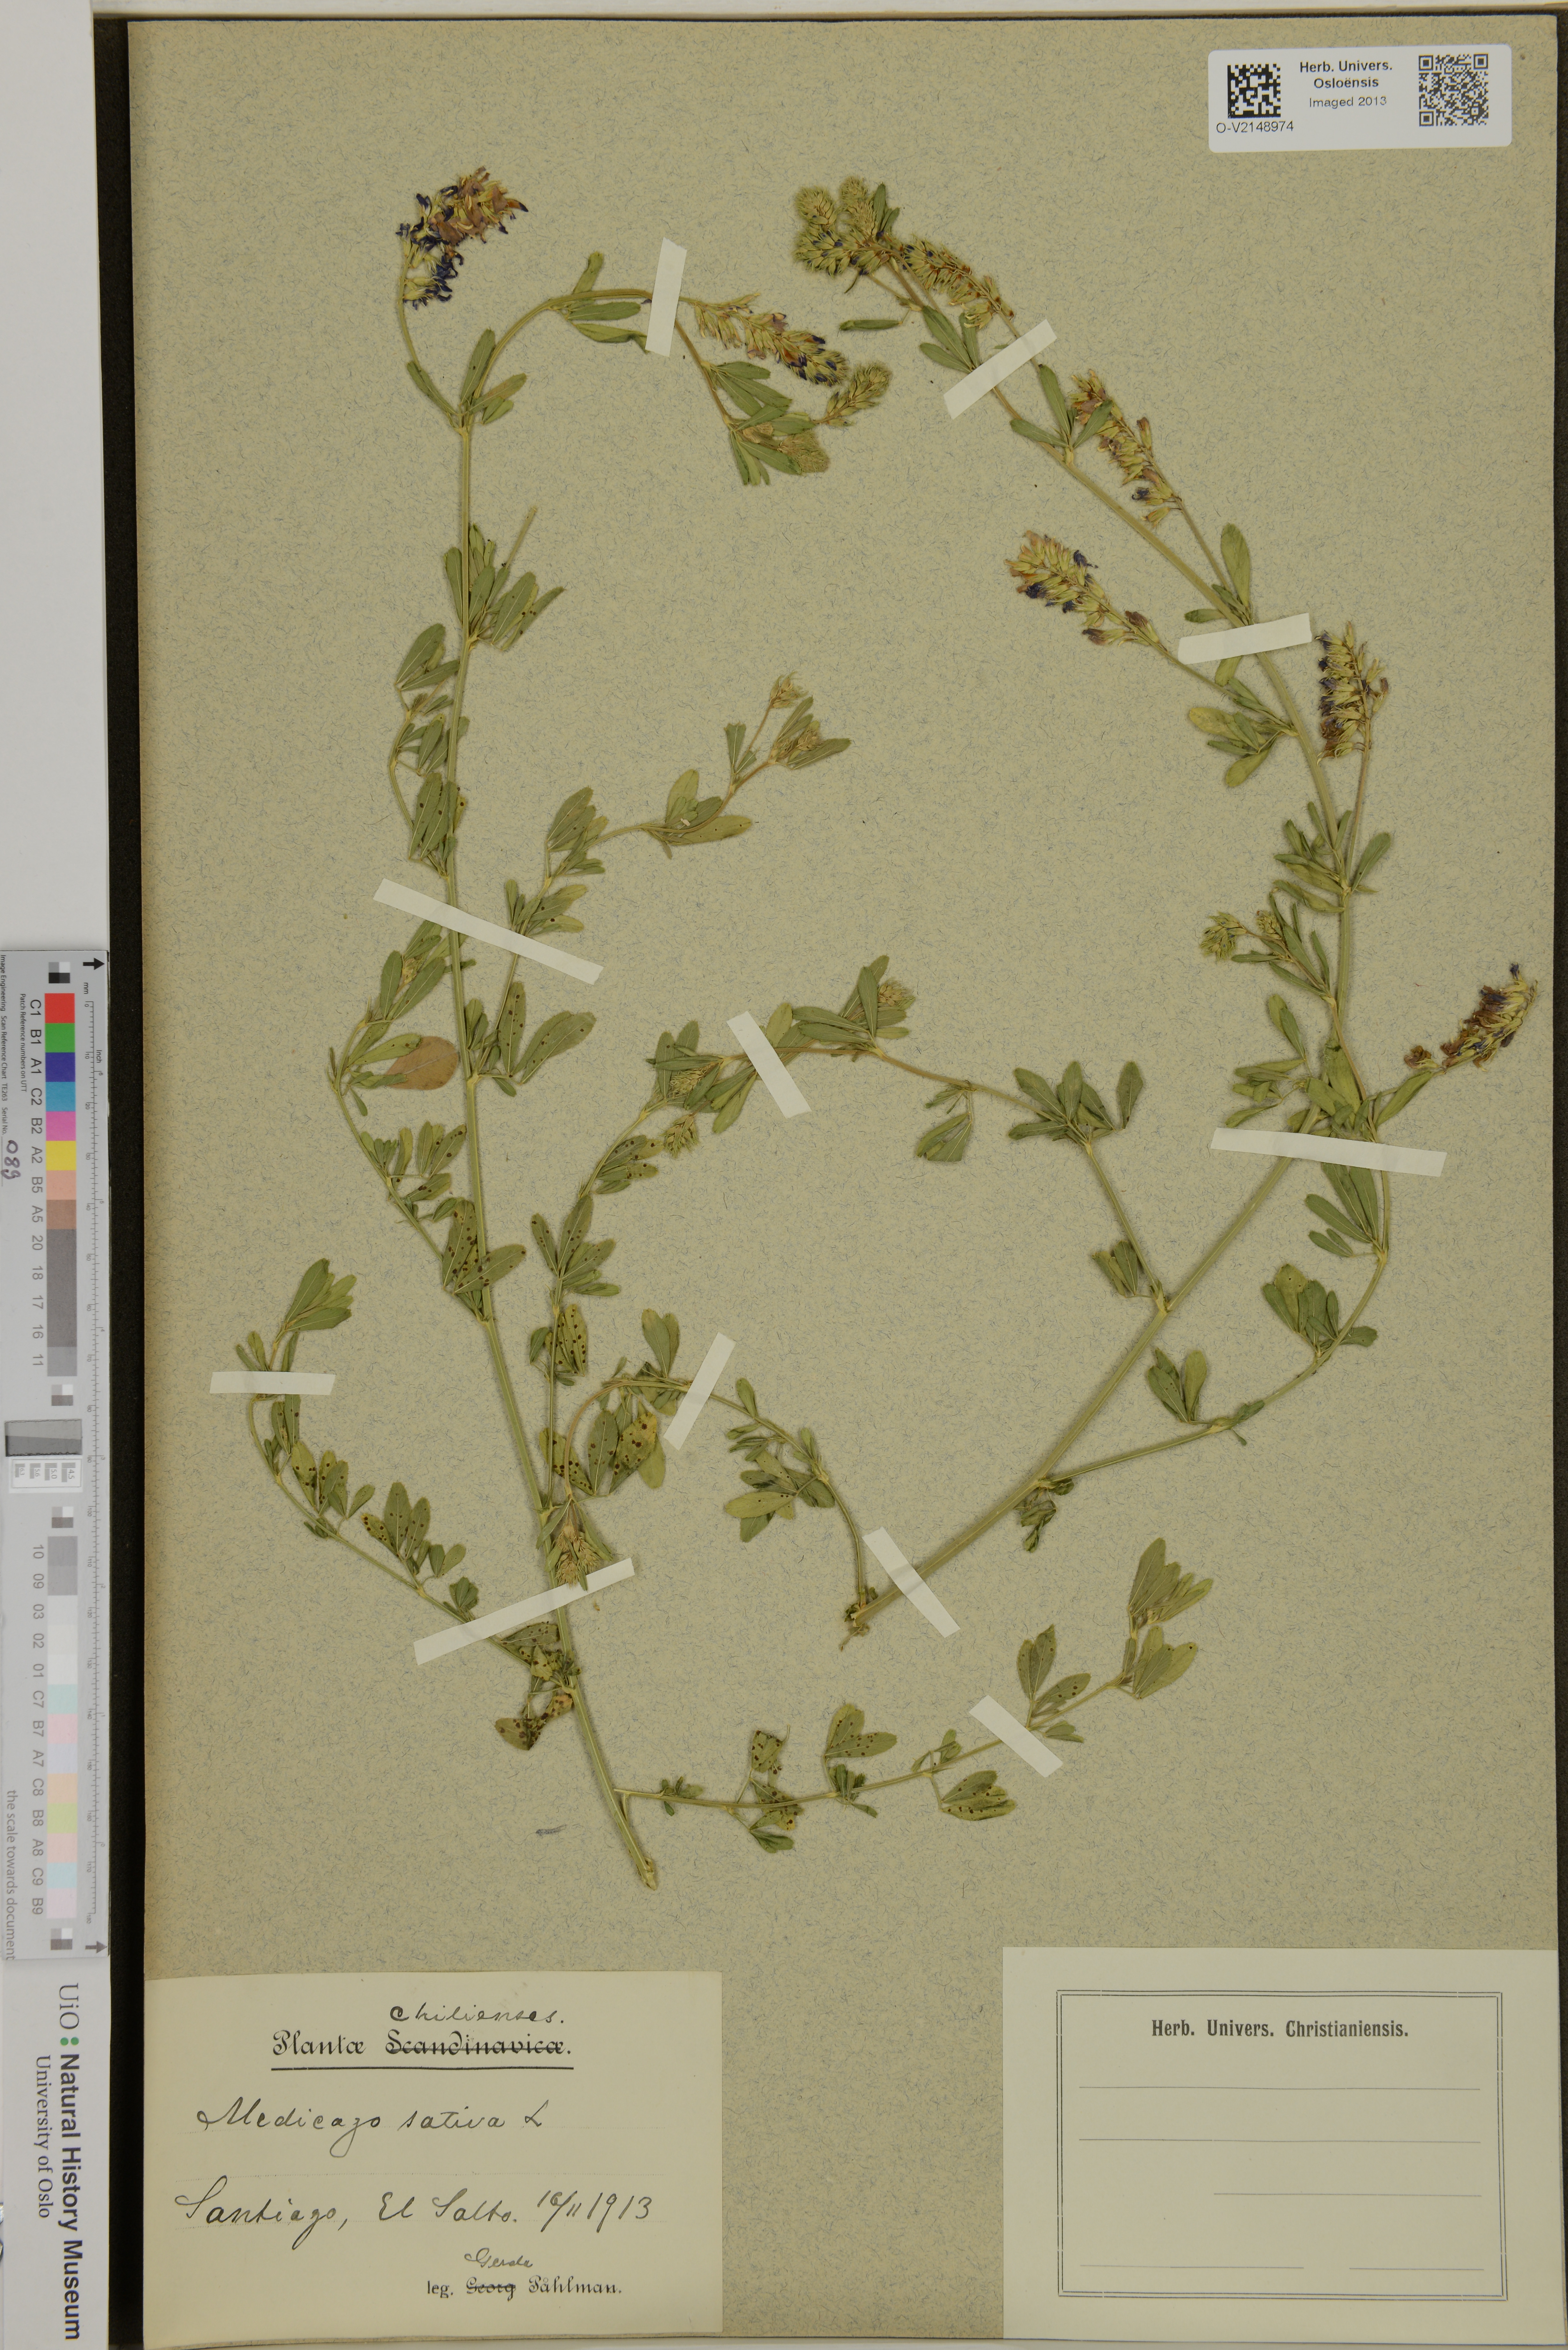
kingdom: Plantae
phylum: Tracheophyta
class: Magnoliopsida
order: Fabales
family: Fabaceae
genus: Medicago
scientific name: Medicago sativa
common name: Alfalfa
